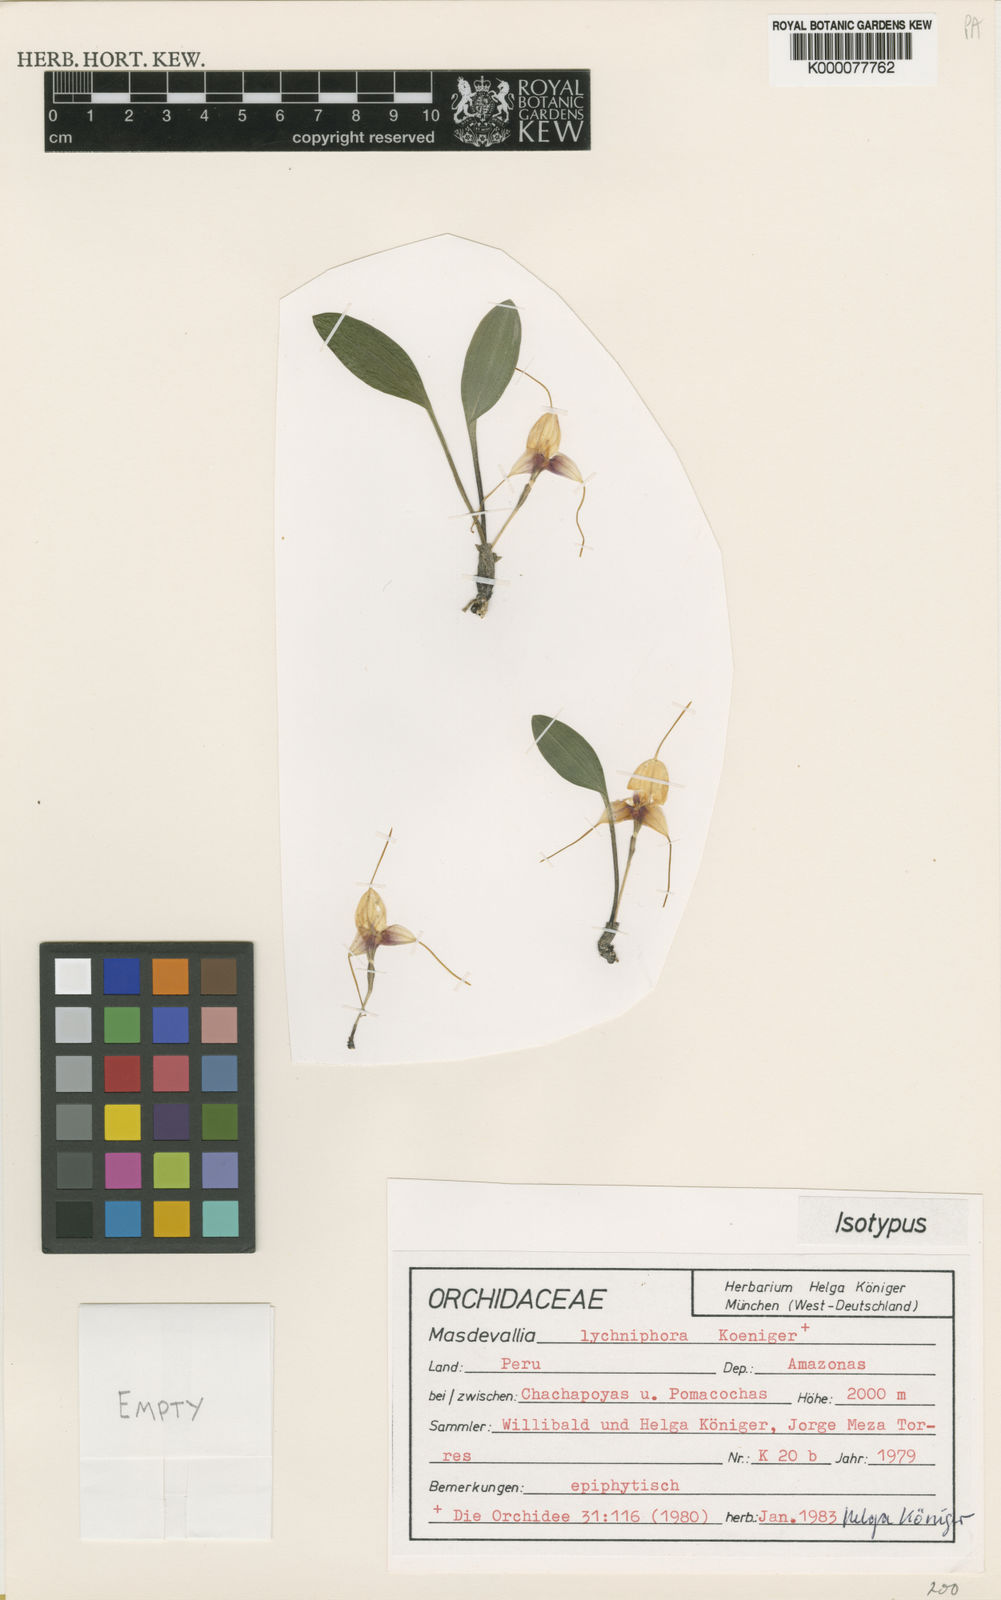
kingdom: Plantae
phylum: Tracheophyta
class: Liliopsida
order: Asparagales
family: Orchidaceae
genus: Masdevallia
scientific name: Masdevallia
